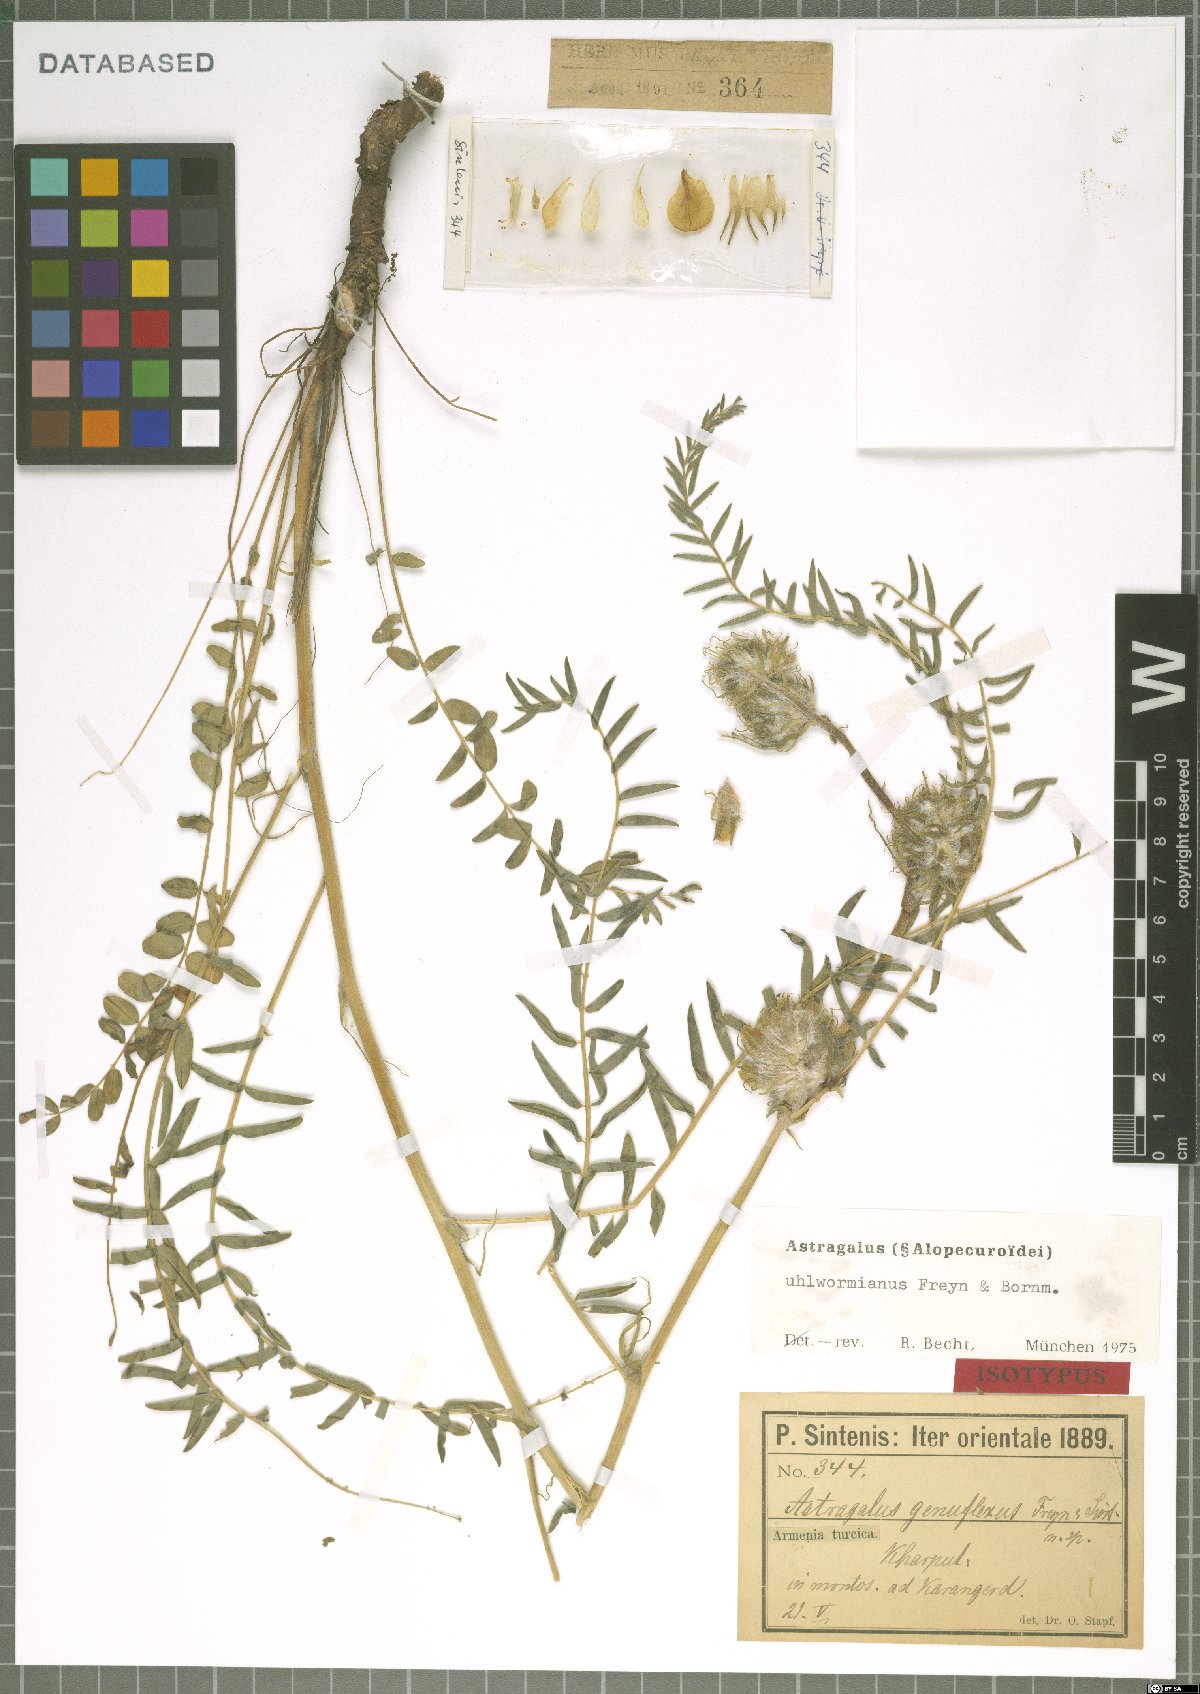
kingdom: Plantae
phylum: Tracheophyta
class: Magnoliopsida
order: Fabales
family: Fabaceae
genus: Astragalus
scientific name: Astragalus genuflexus
